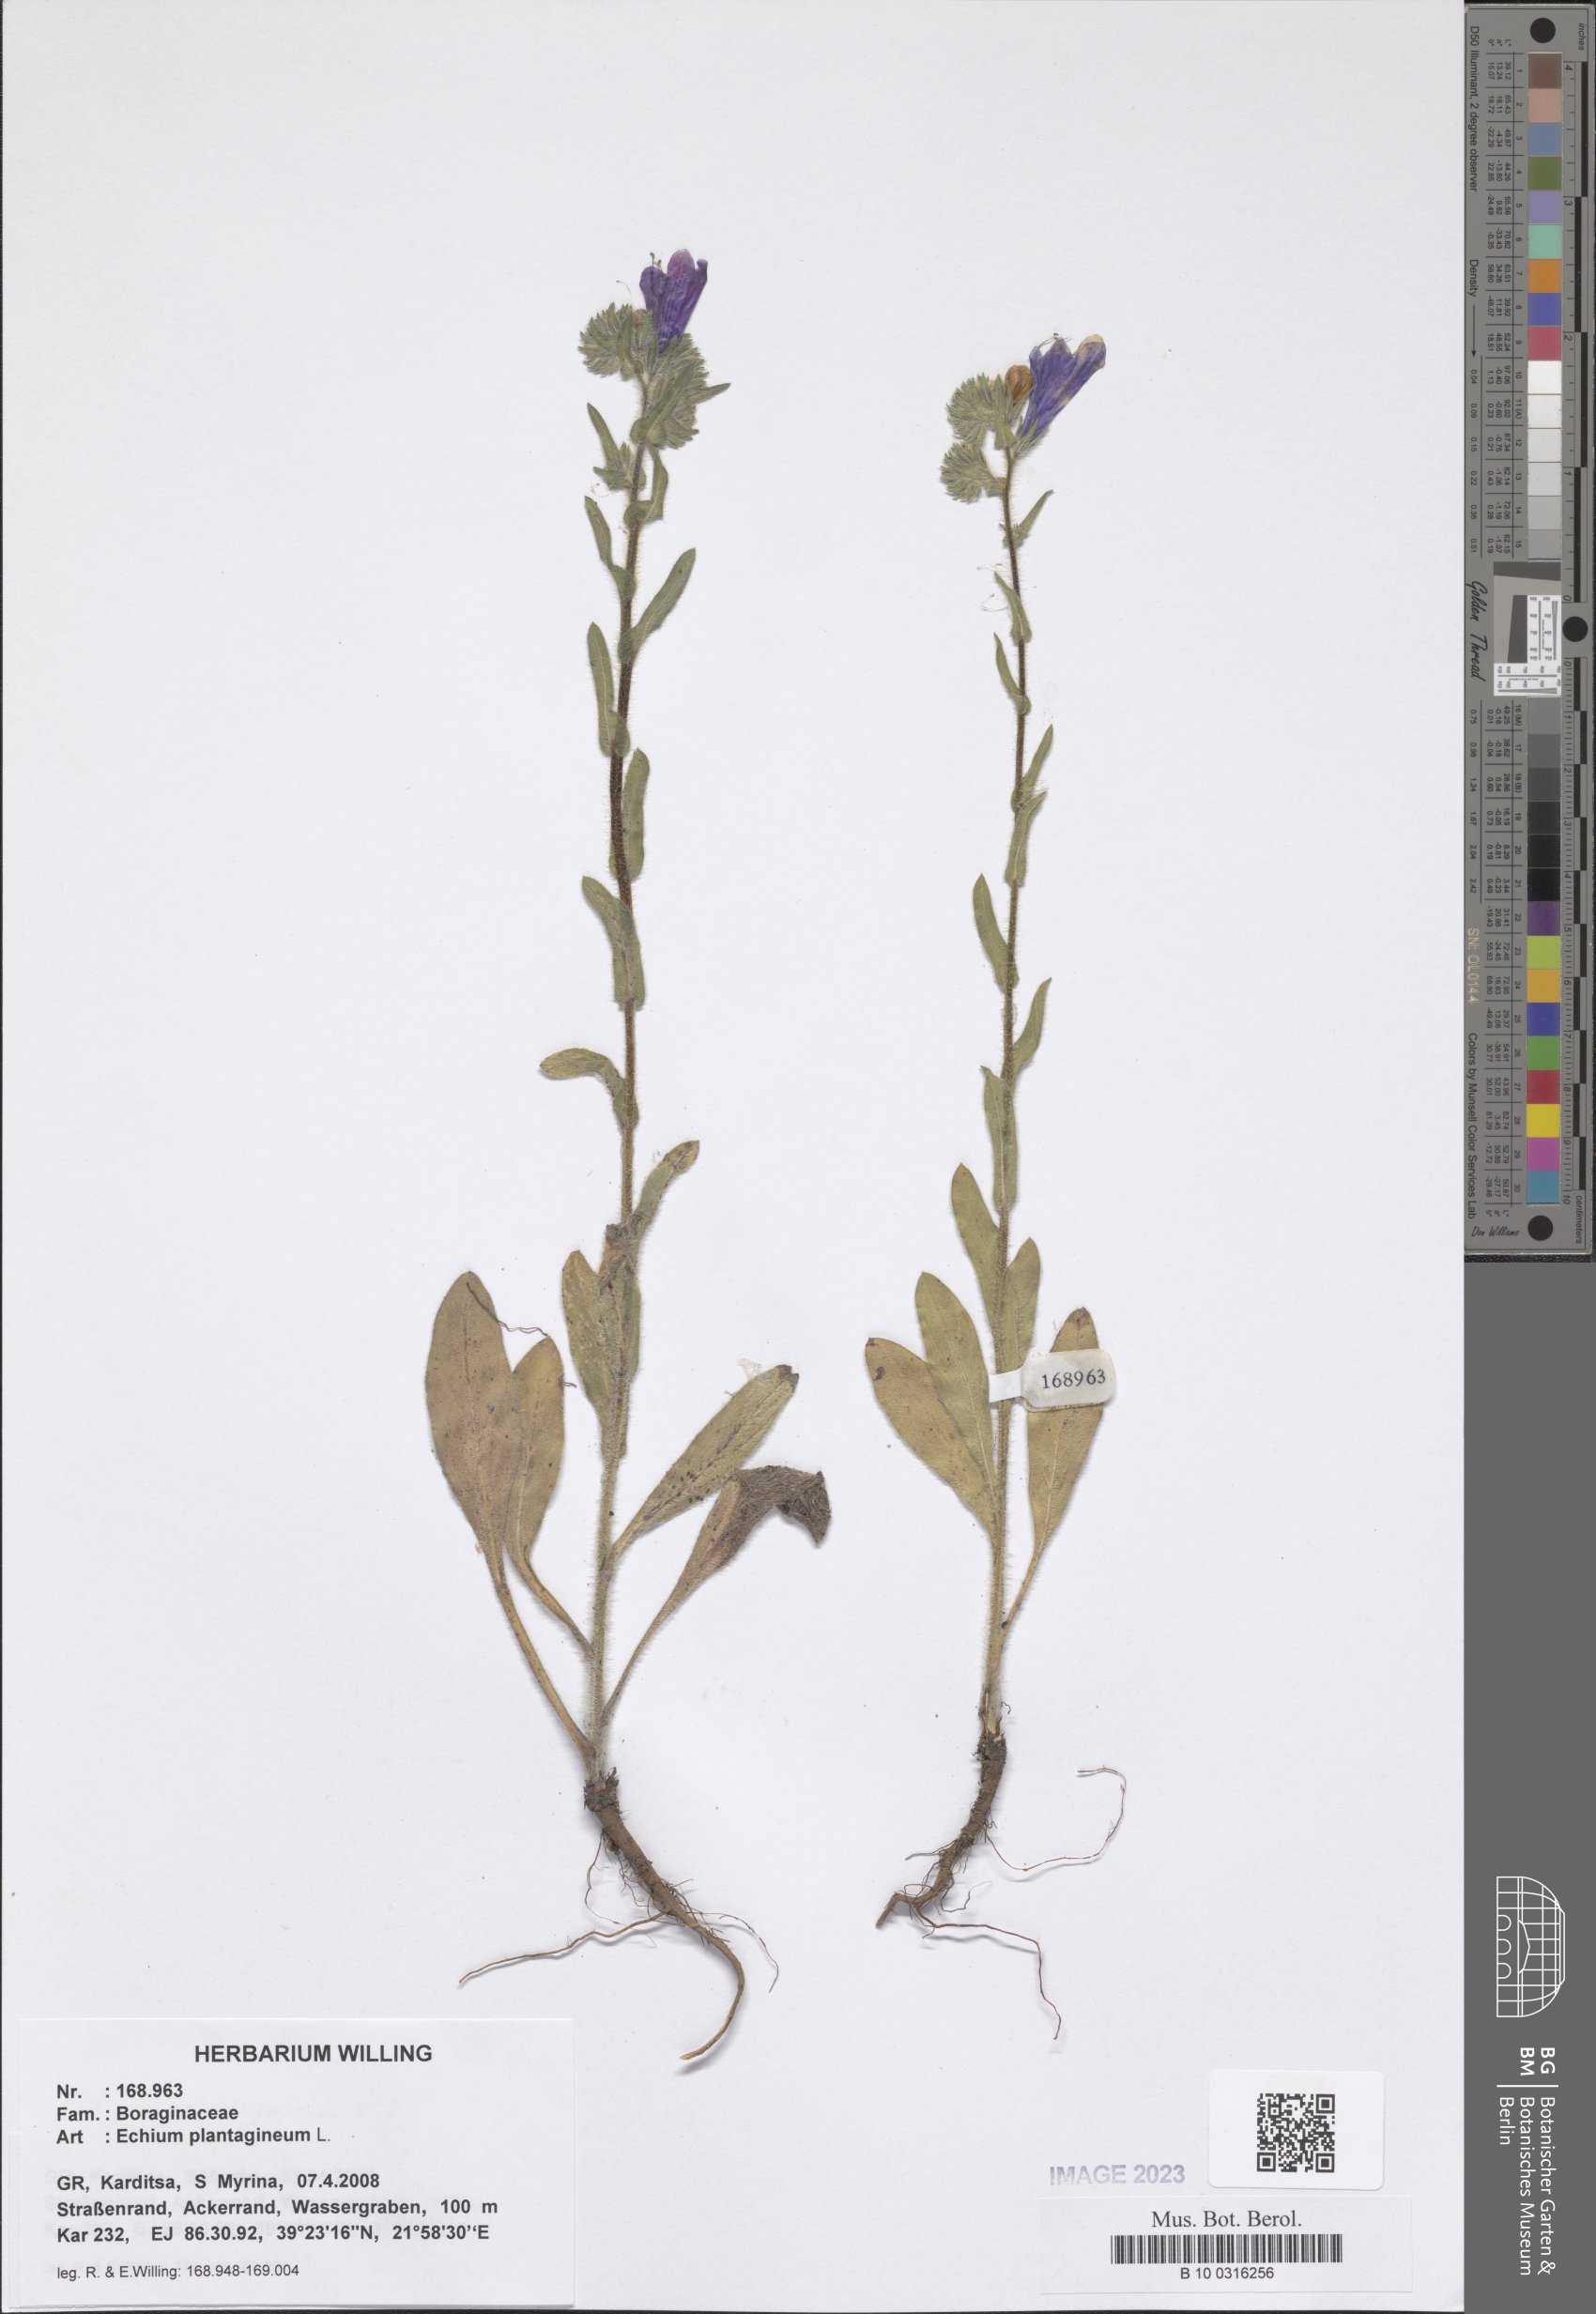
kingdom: Plantae
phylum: Tracheophyta
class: Magnoliopsida
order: Boraginales
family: Boraginaceae
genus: Echium
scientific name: Echium plantagineum
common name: Purple viper's-bugloss
